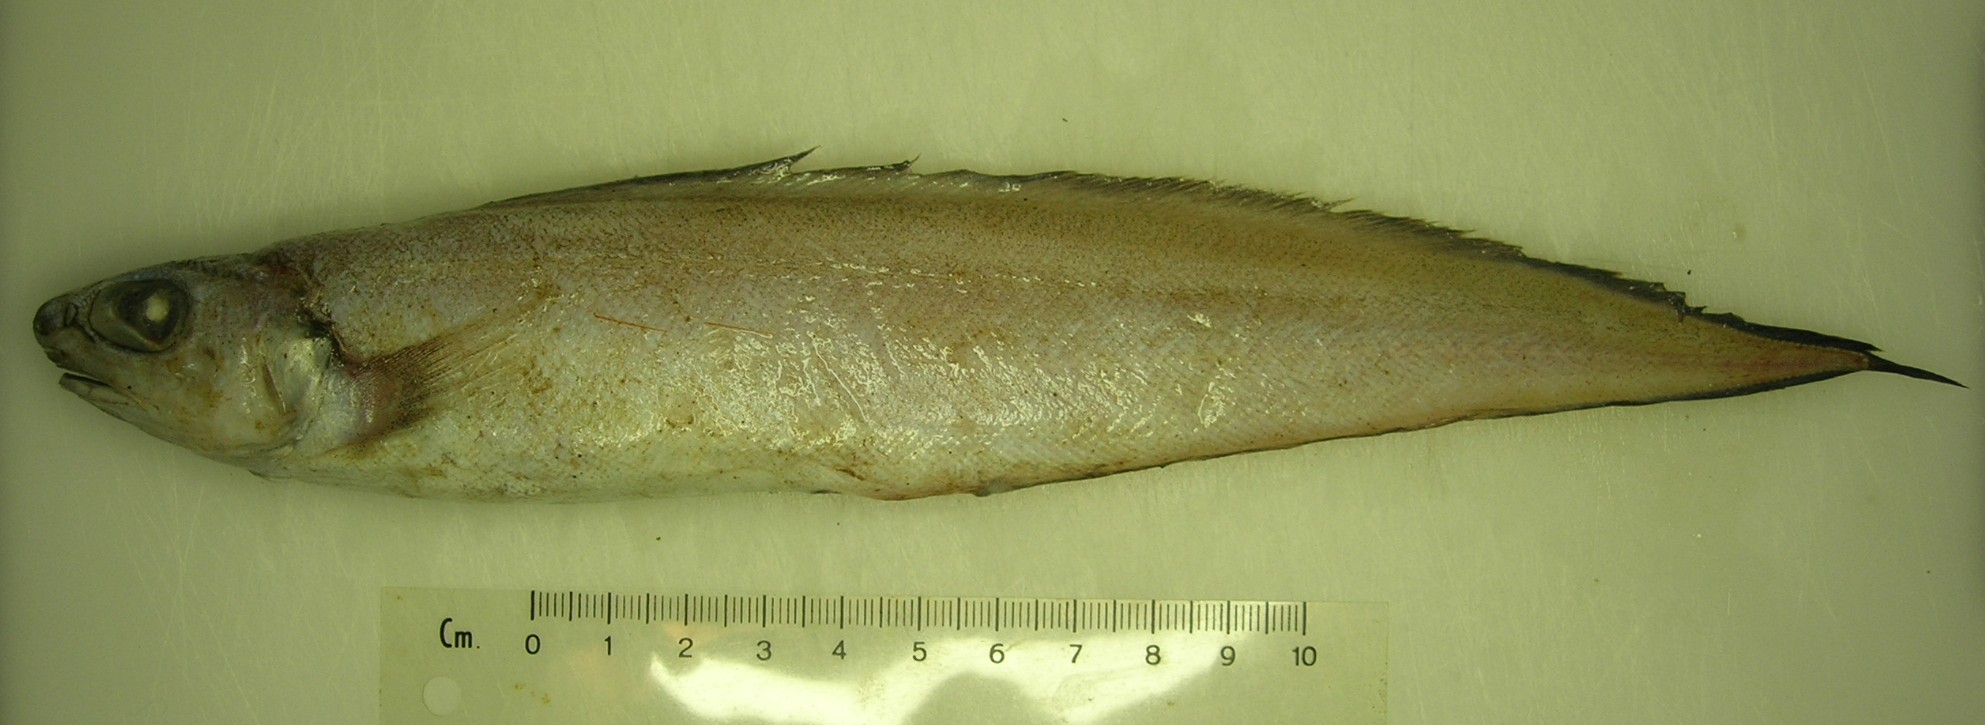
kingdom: Animalia
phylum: Chordata
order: Ophidiiformes
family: Ophidiidae
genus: Selachophidium
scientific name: Selachophidium guentheri
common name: Barbed brotula
